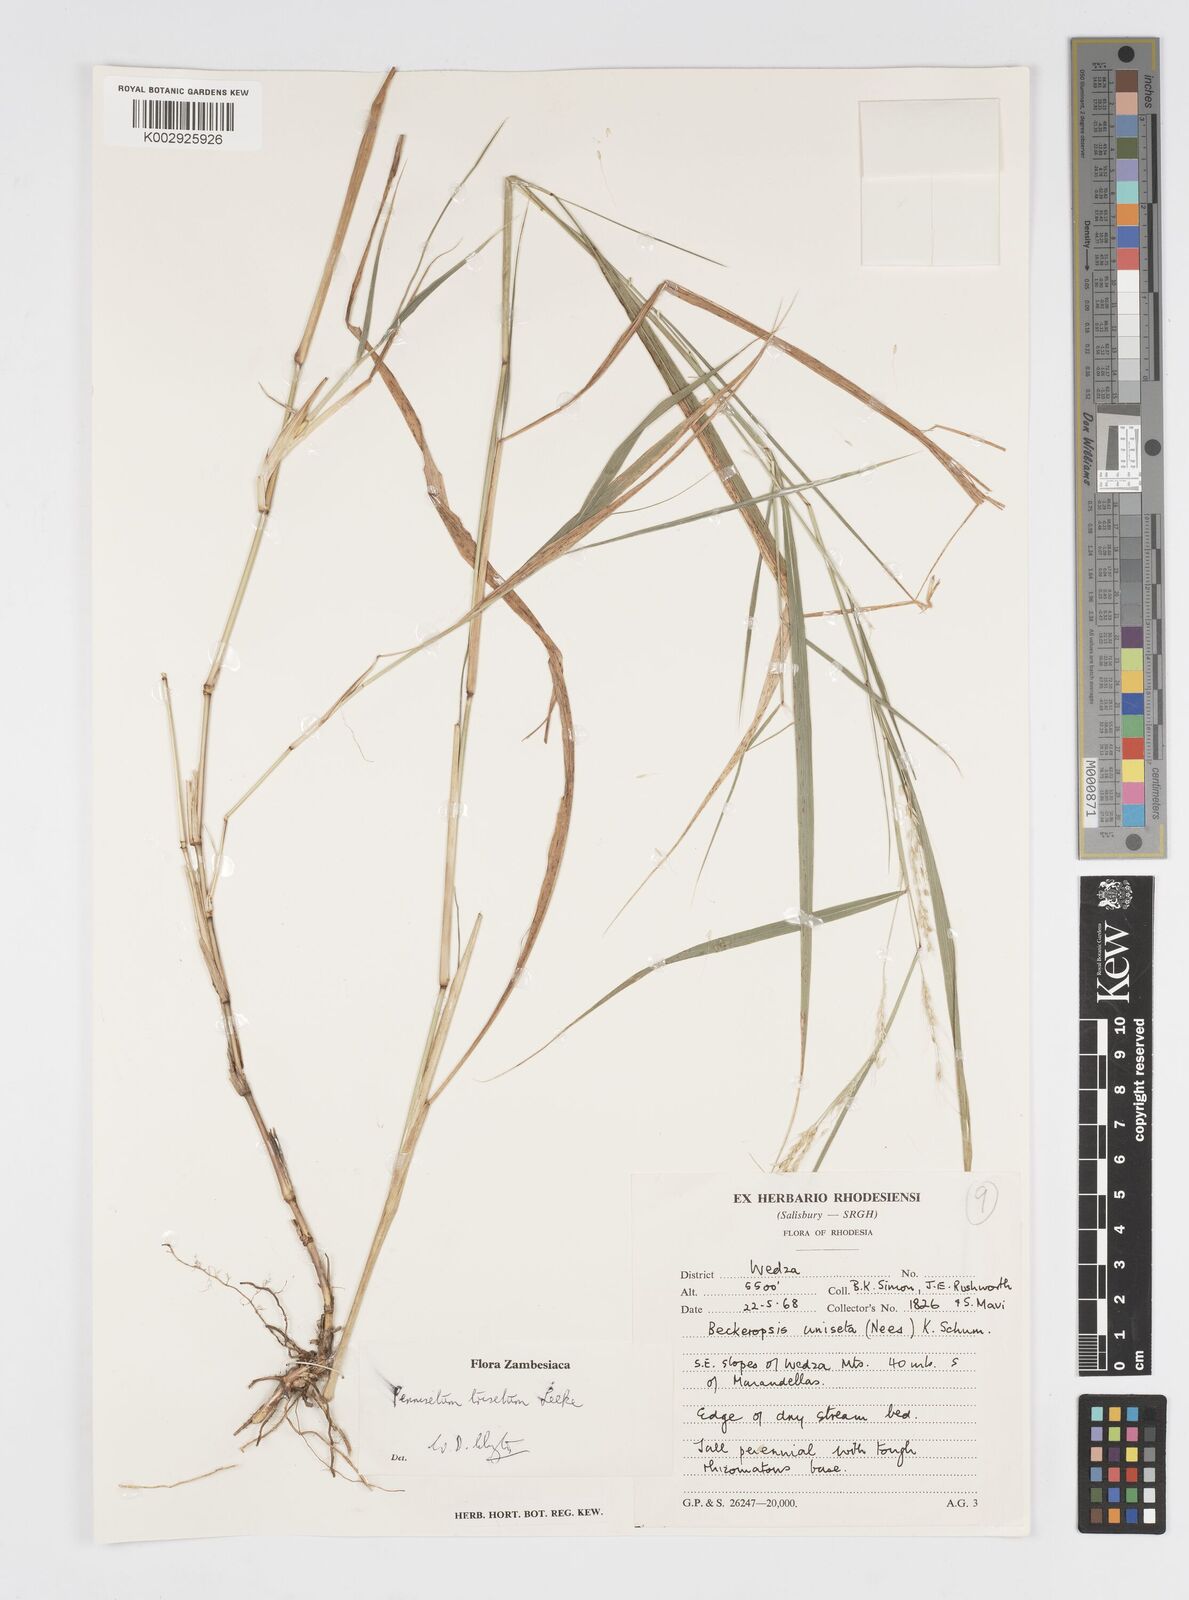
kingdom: Plantae
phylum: Tracheophyta
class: Liliopsida
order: Poales
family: Poaceae
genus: Cenchrus
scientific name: Cenchrus trisetus
